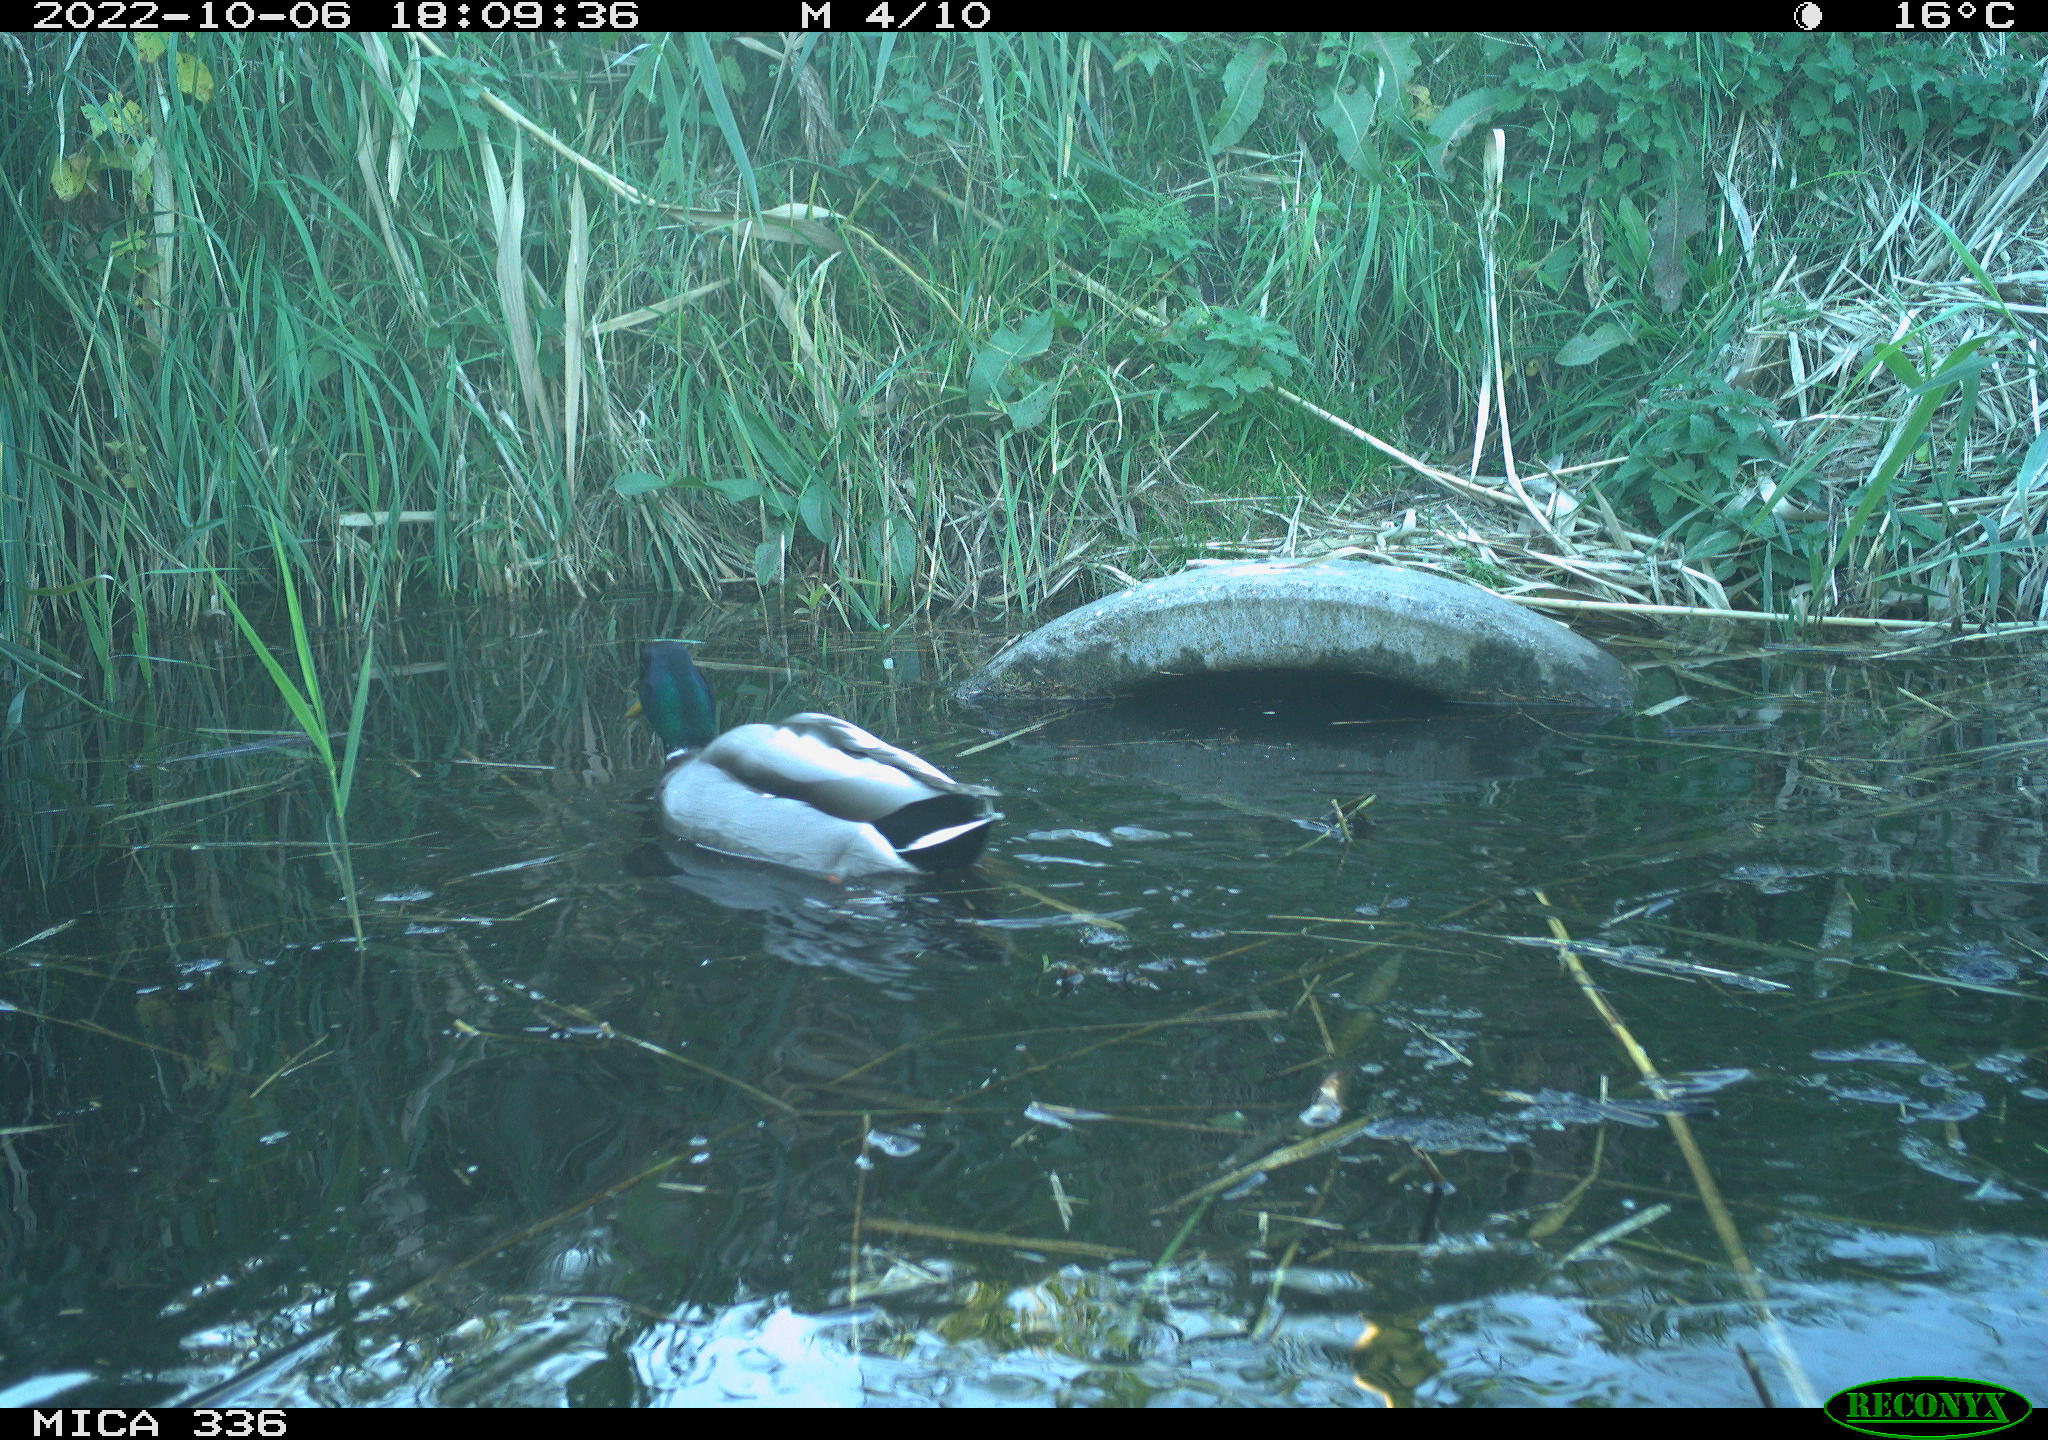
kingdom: Animalia
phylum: Chordata
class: Aves
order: Anseriformes
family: Anatidae
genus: Anas
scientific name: Anas
